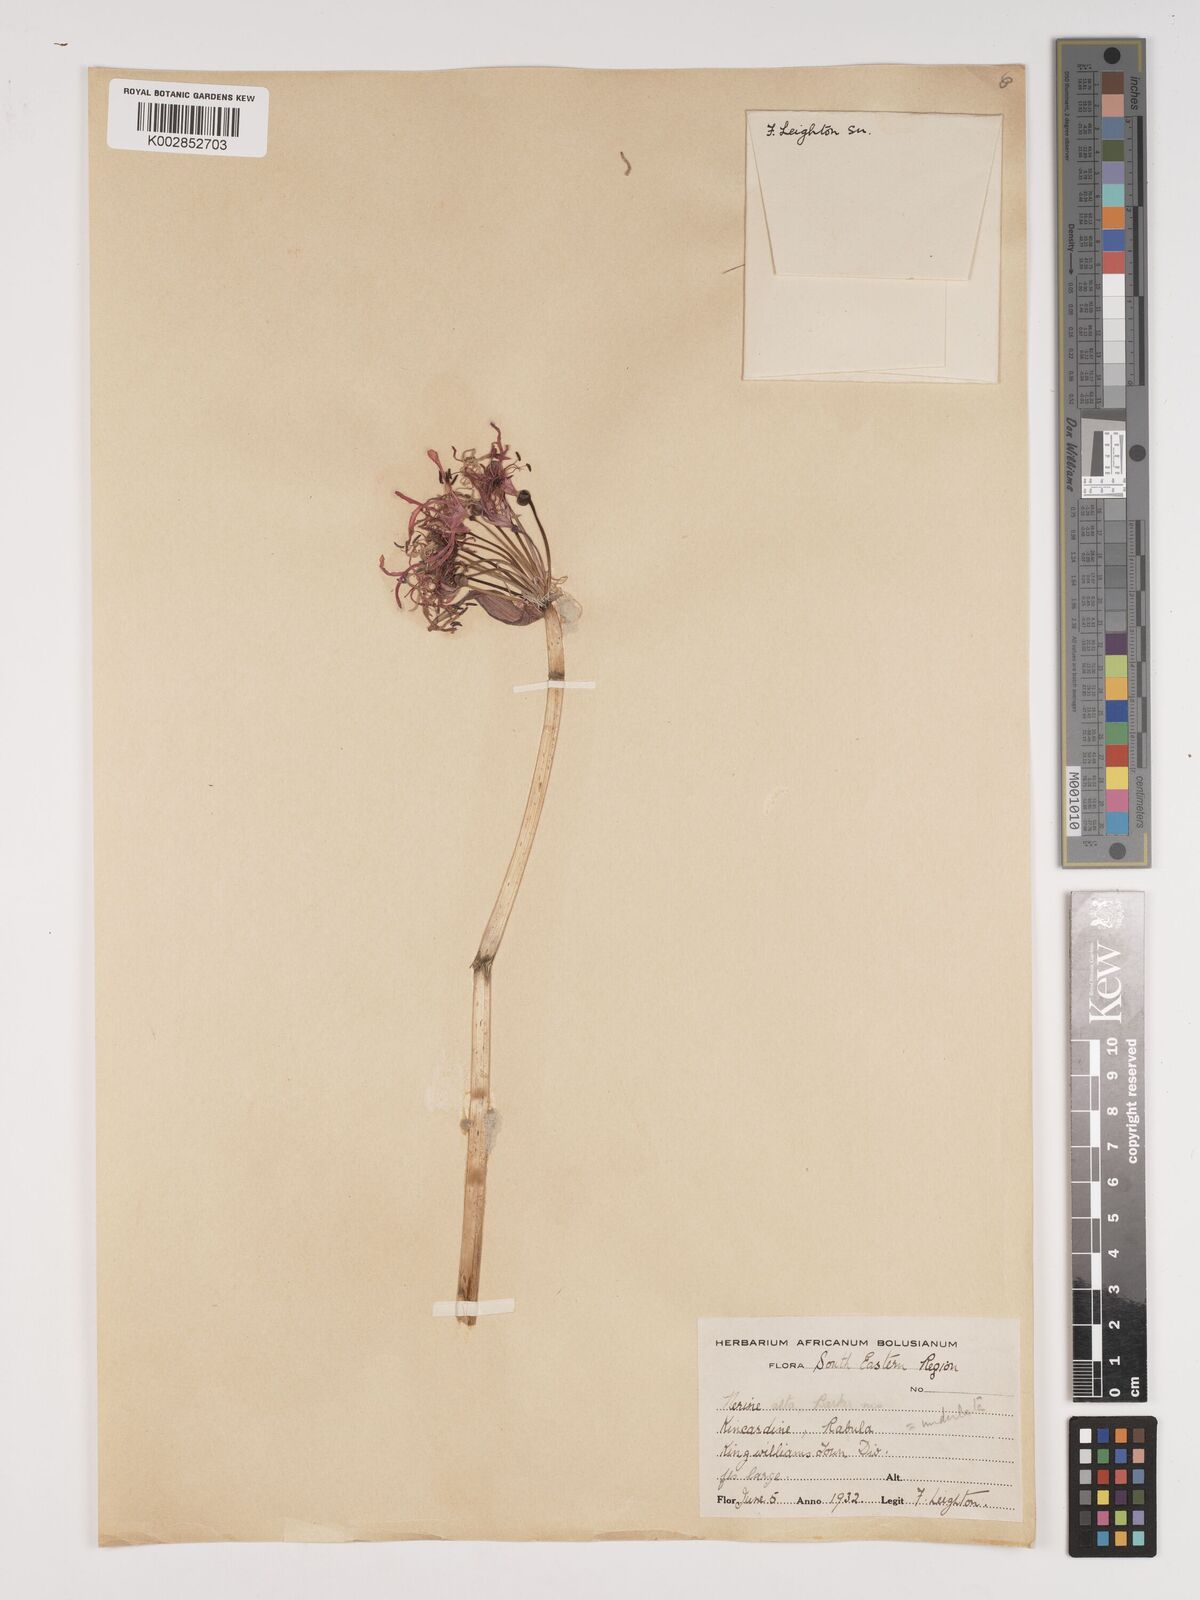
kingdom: Plantae
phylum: Tracheophyta
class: Liliopsida
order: Asparagales
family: Amaryllidaceae
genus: Nerine
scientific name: Nerine undulata
